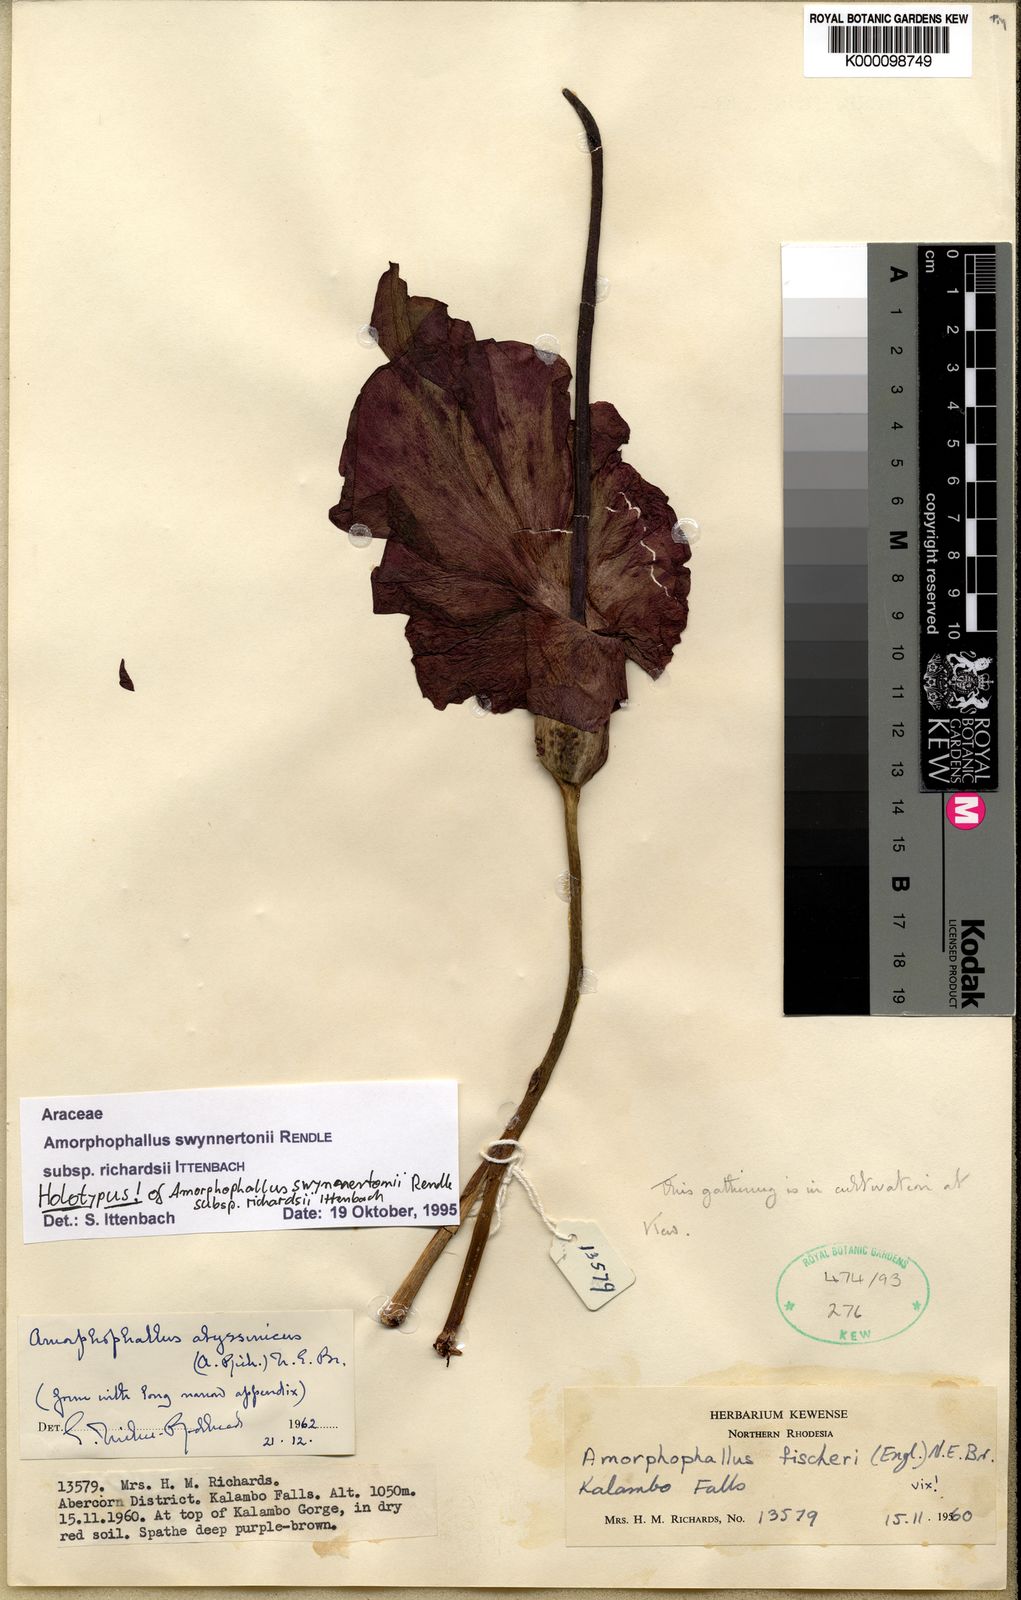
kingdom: Plantae
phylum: Tracheophyta
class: Liliopsida
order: Alismatales
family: Araceae
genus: Amorphophallus
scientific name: Amorphophallus mossambicensis
